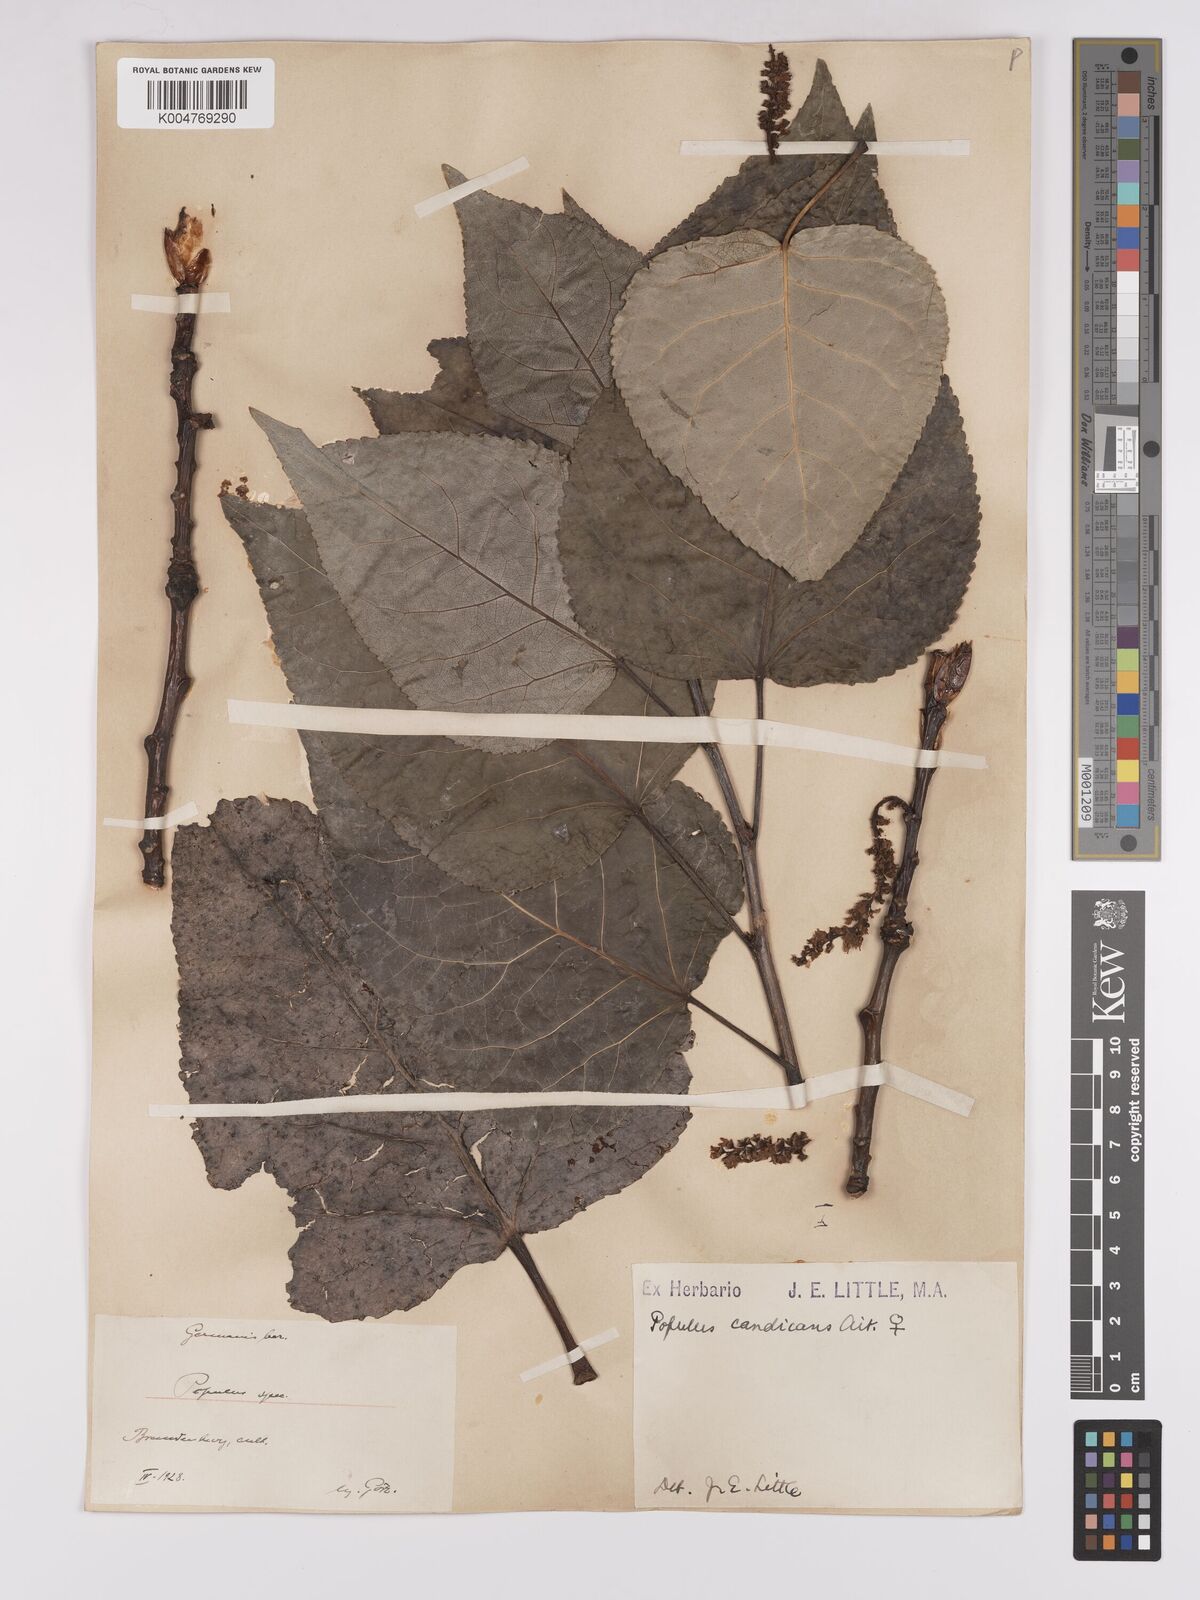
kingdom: Plantae
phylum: Tracheophyta
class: Magnoliopsida
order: Malpighiales
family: Salicaceae
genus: Populus
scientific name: Populus balsamifera
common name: Balsam poplar
